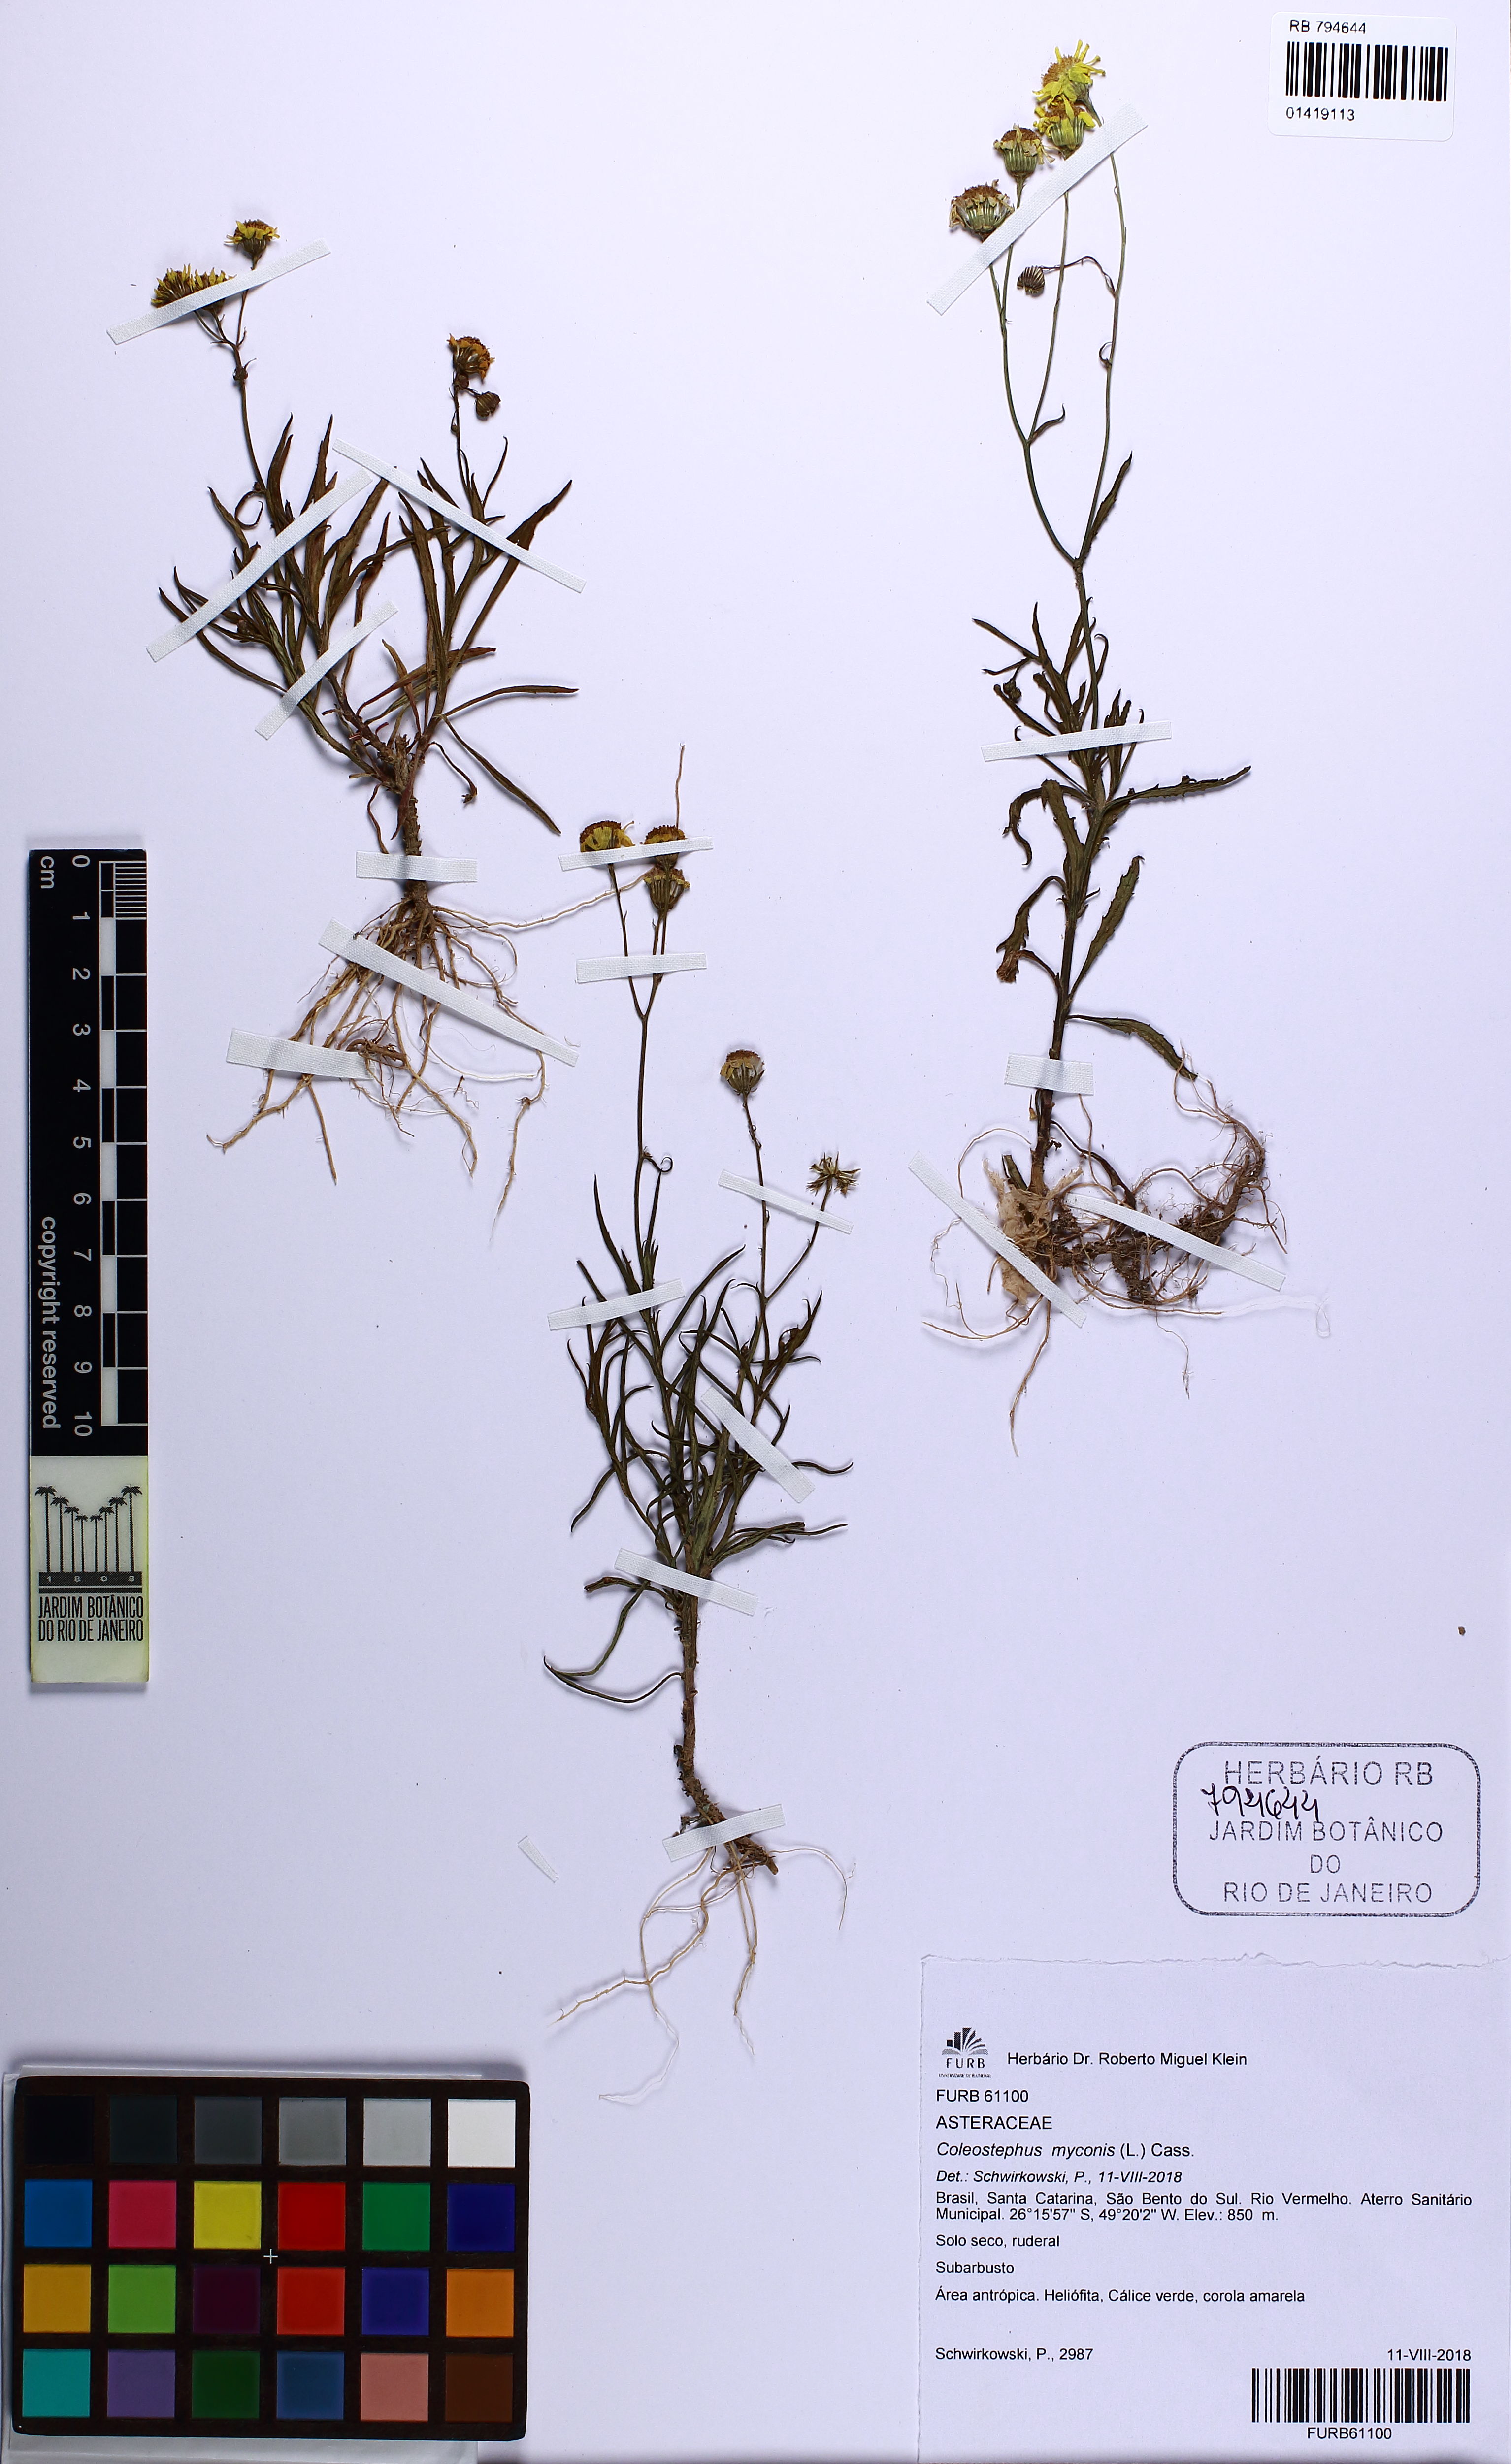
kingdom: Plantae
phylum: Tracheophyta
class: Magnoliopsida
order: Asterales
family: Asteraceae
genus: Coleostephus
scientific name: Coleostephus myconis
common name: Mediterranean marigold
